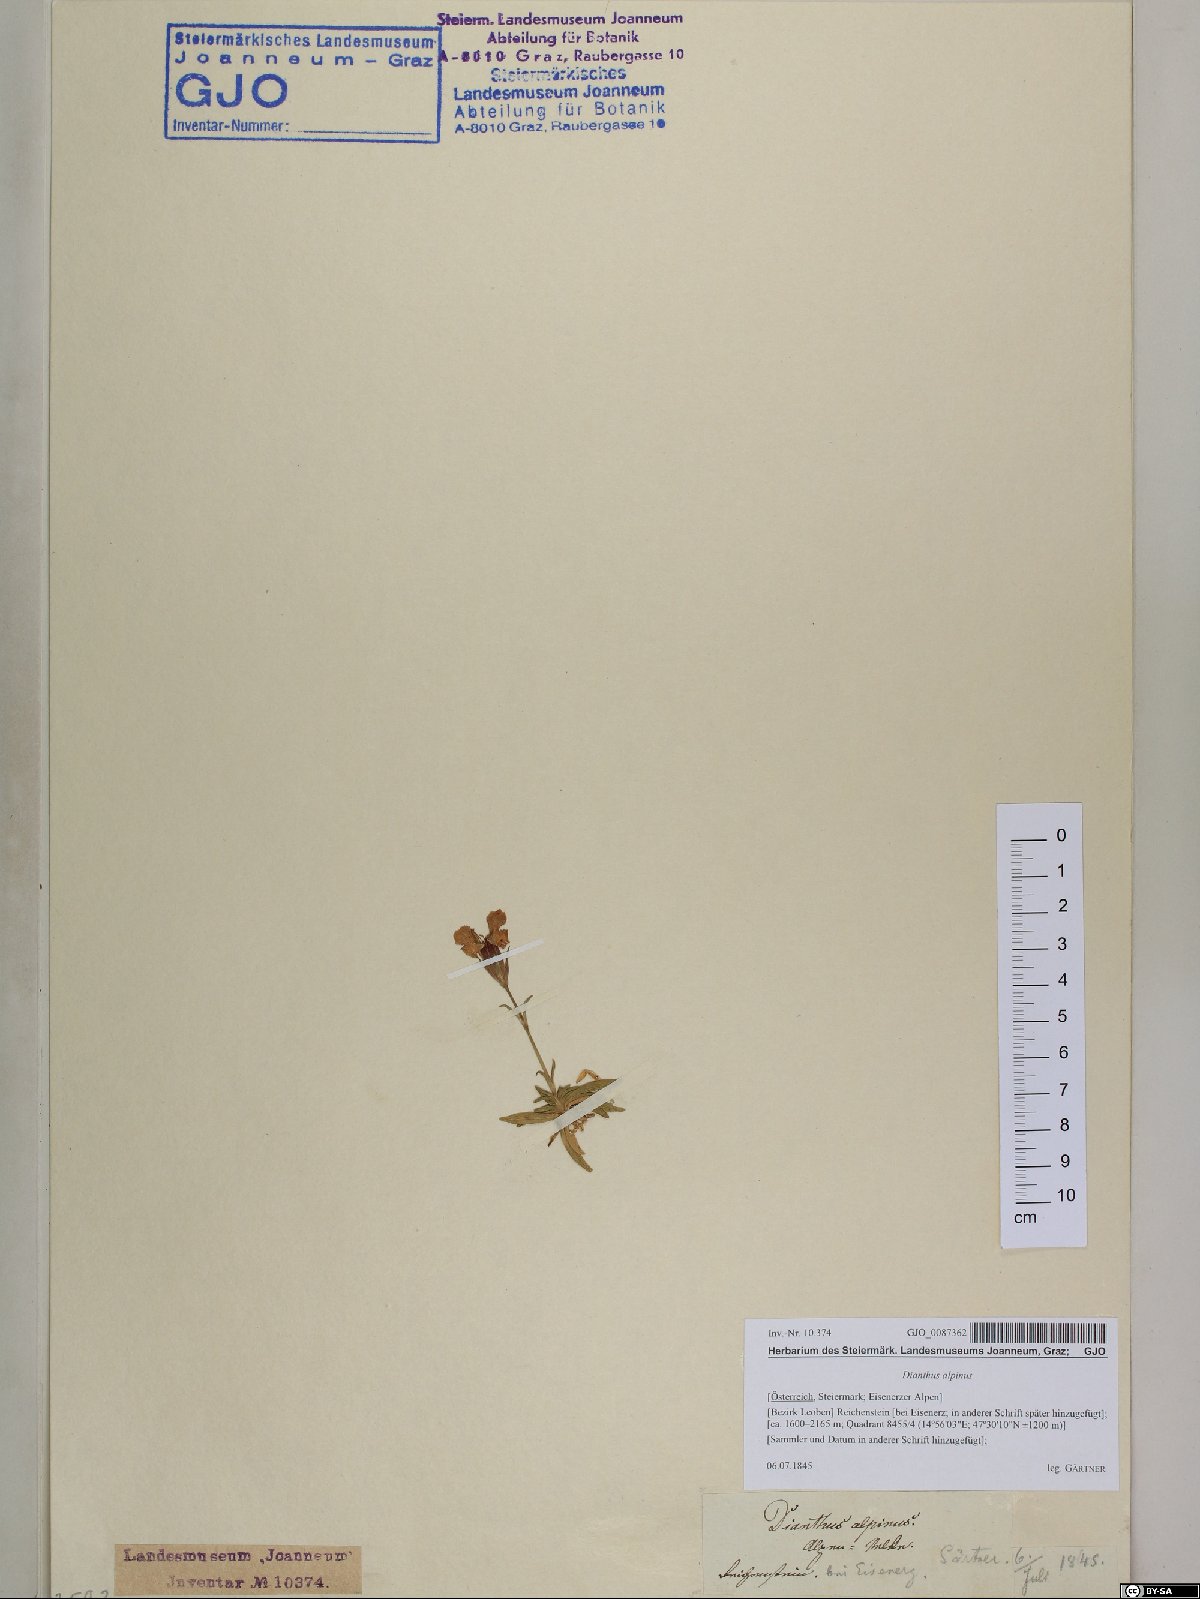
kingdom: Plantae
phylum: Tracheophyta
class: Magnoliopsida
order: Caryophyllales
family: Caryophyllaceae
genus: Dianthus
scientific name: Dianthus alpinus
